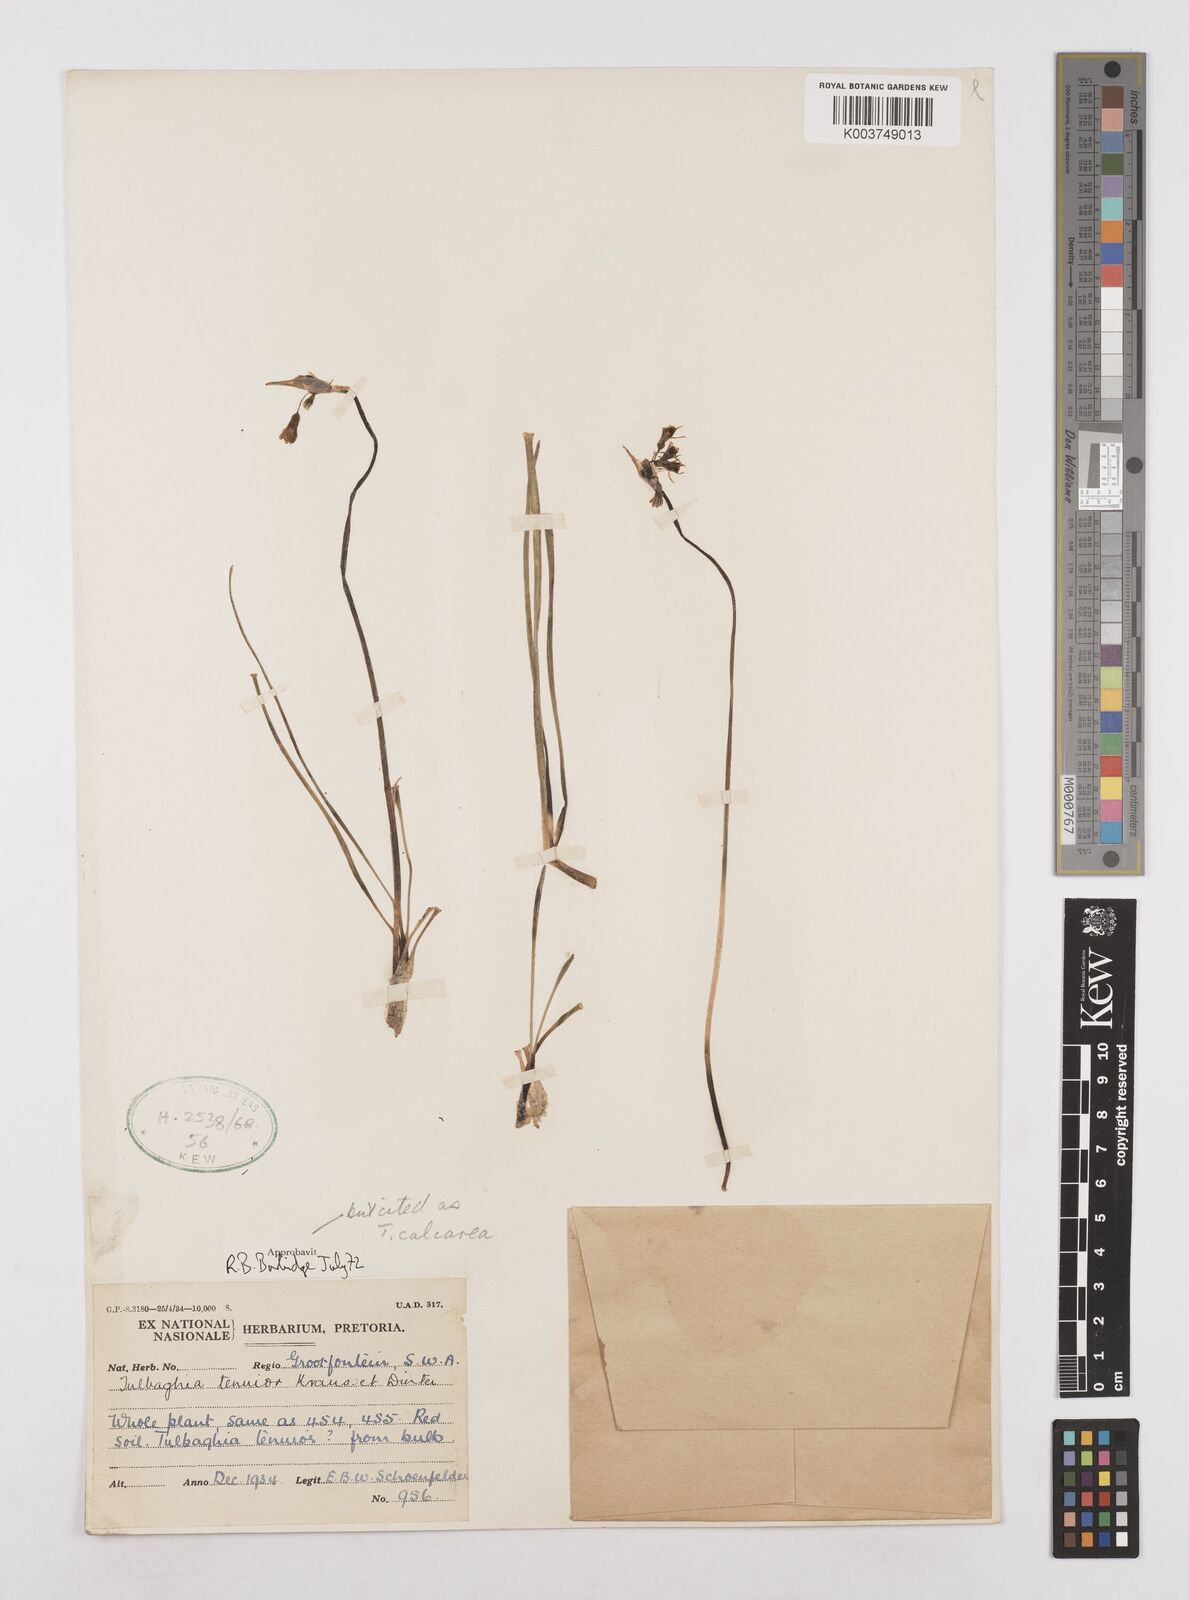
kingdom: Plantae
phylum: Tracheophyta
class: Liliopsida
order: Asparagales
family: Amaryllidaceae
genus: Tulbaghia
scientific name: Tulbaghia calcarea
